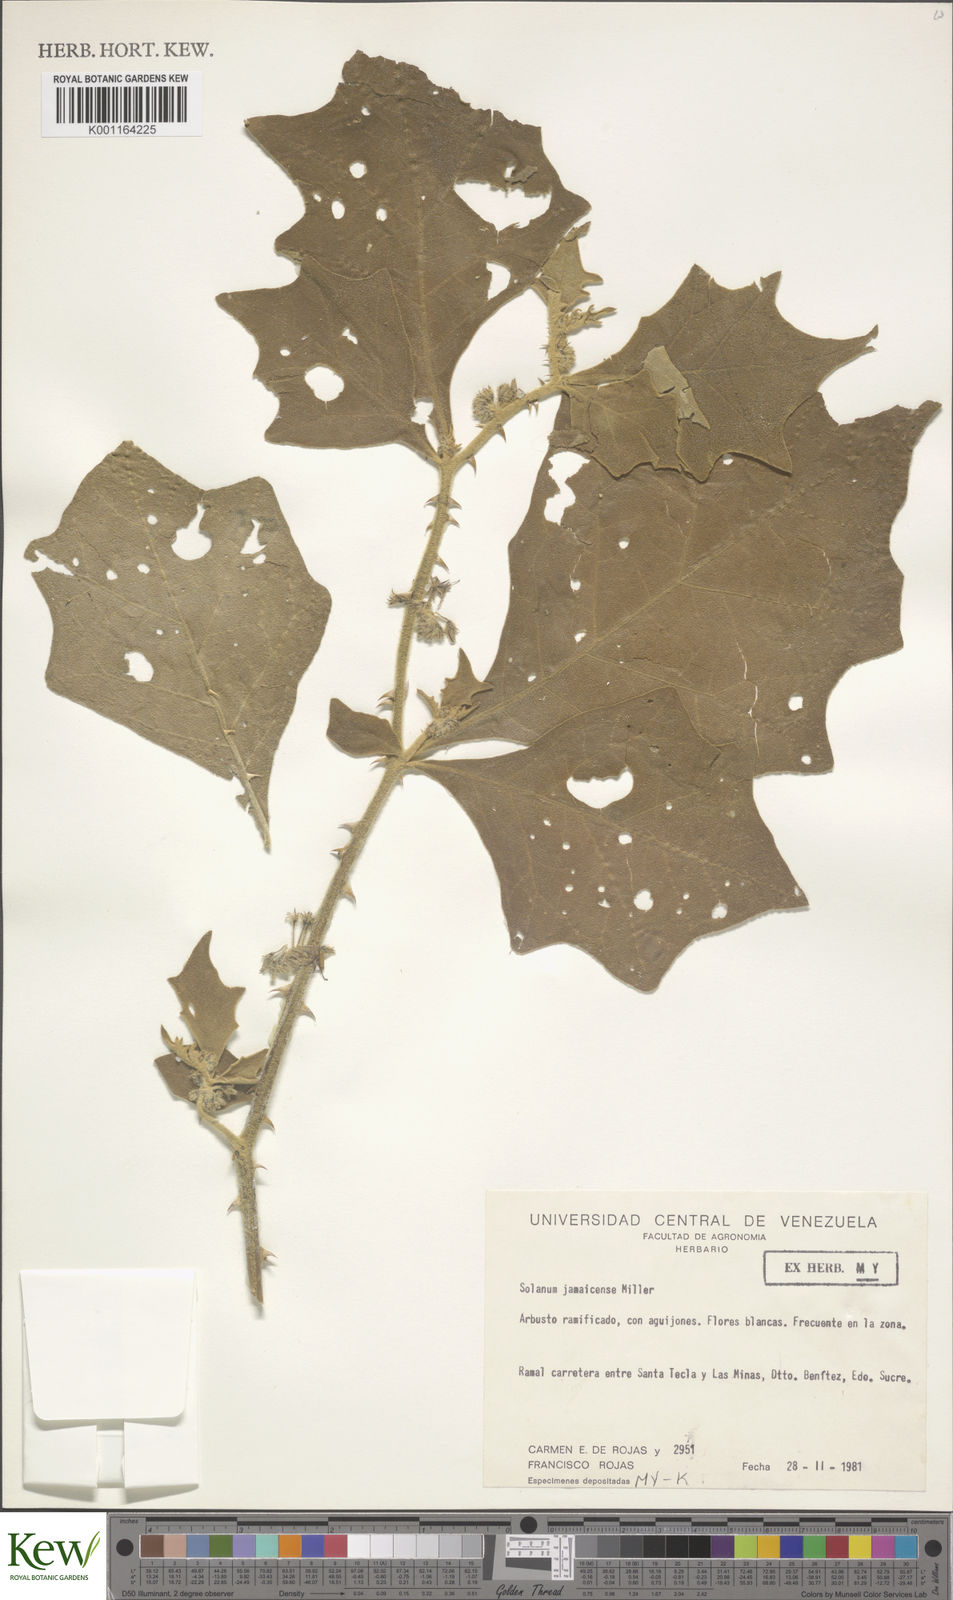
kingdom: Plantae
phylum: Tracheophyta
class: Magnoliopsida
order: Solanales
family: Solanaceae
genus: Solanum
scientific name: Solanum jamaicense
